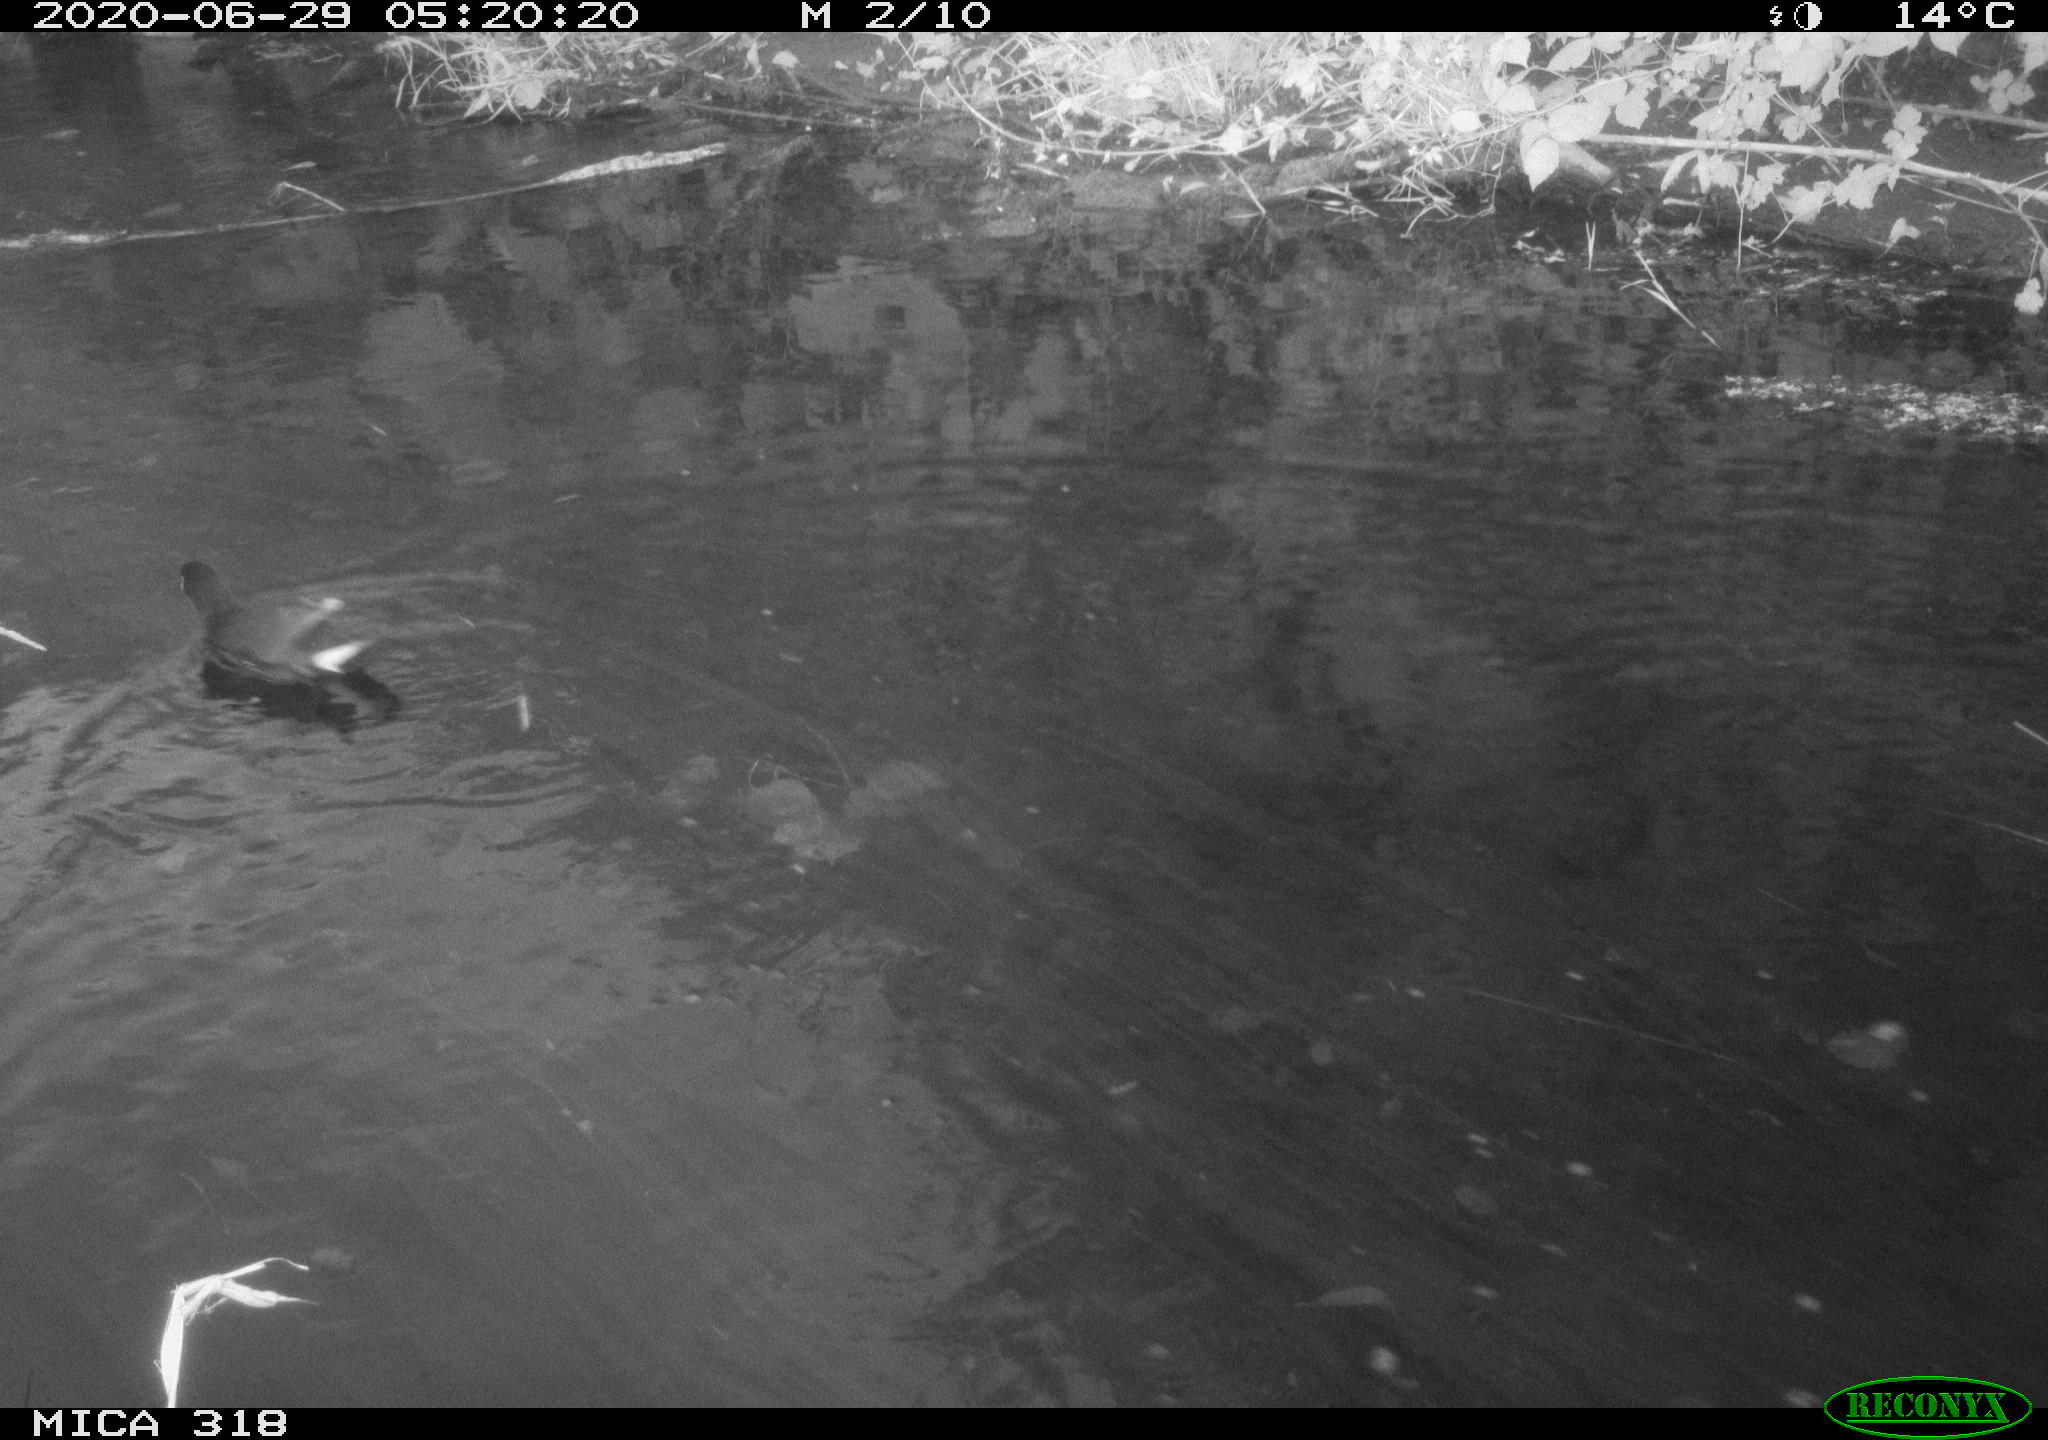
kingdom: Animalia
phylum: Chordata
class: Aves
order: Anseriformes
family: Anatidae
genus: Anas
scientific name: Anas platyrhynchos
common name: Mallard
